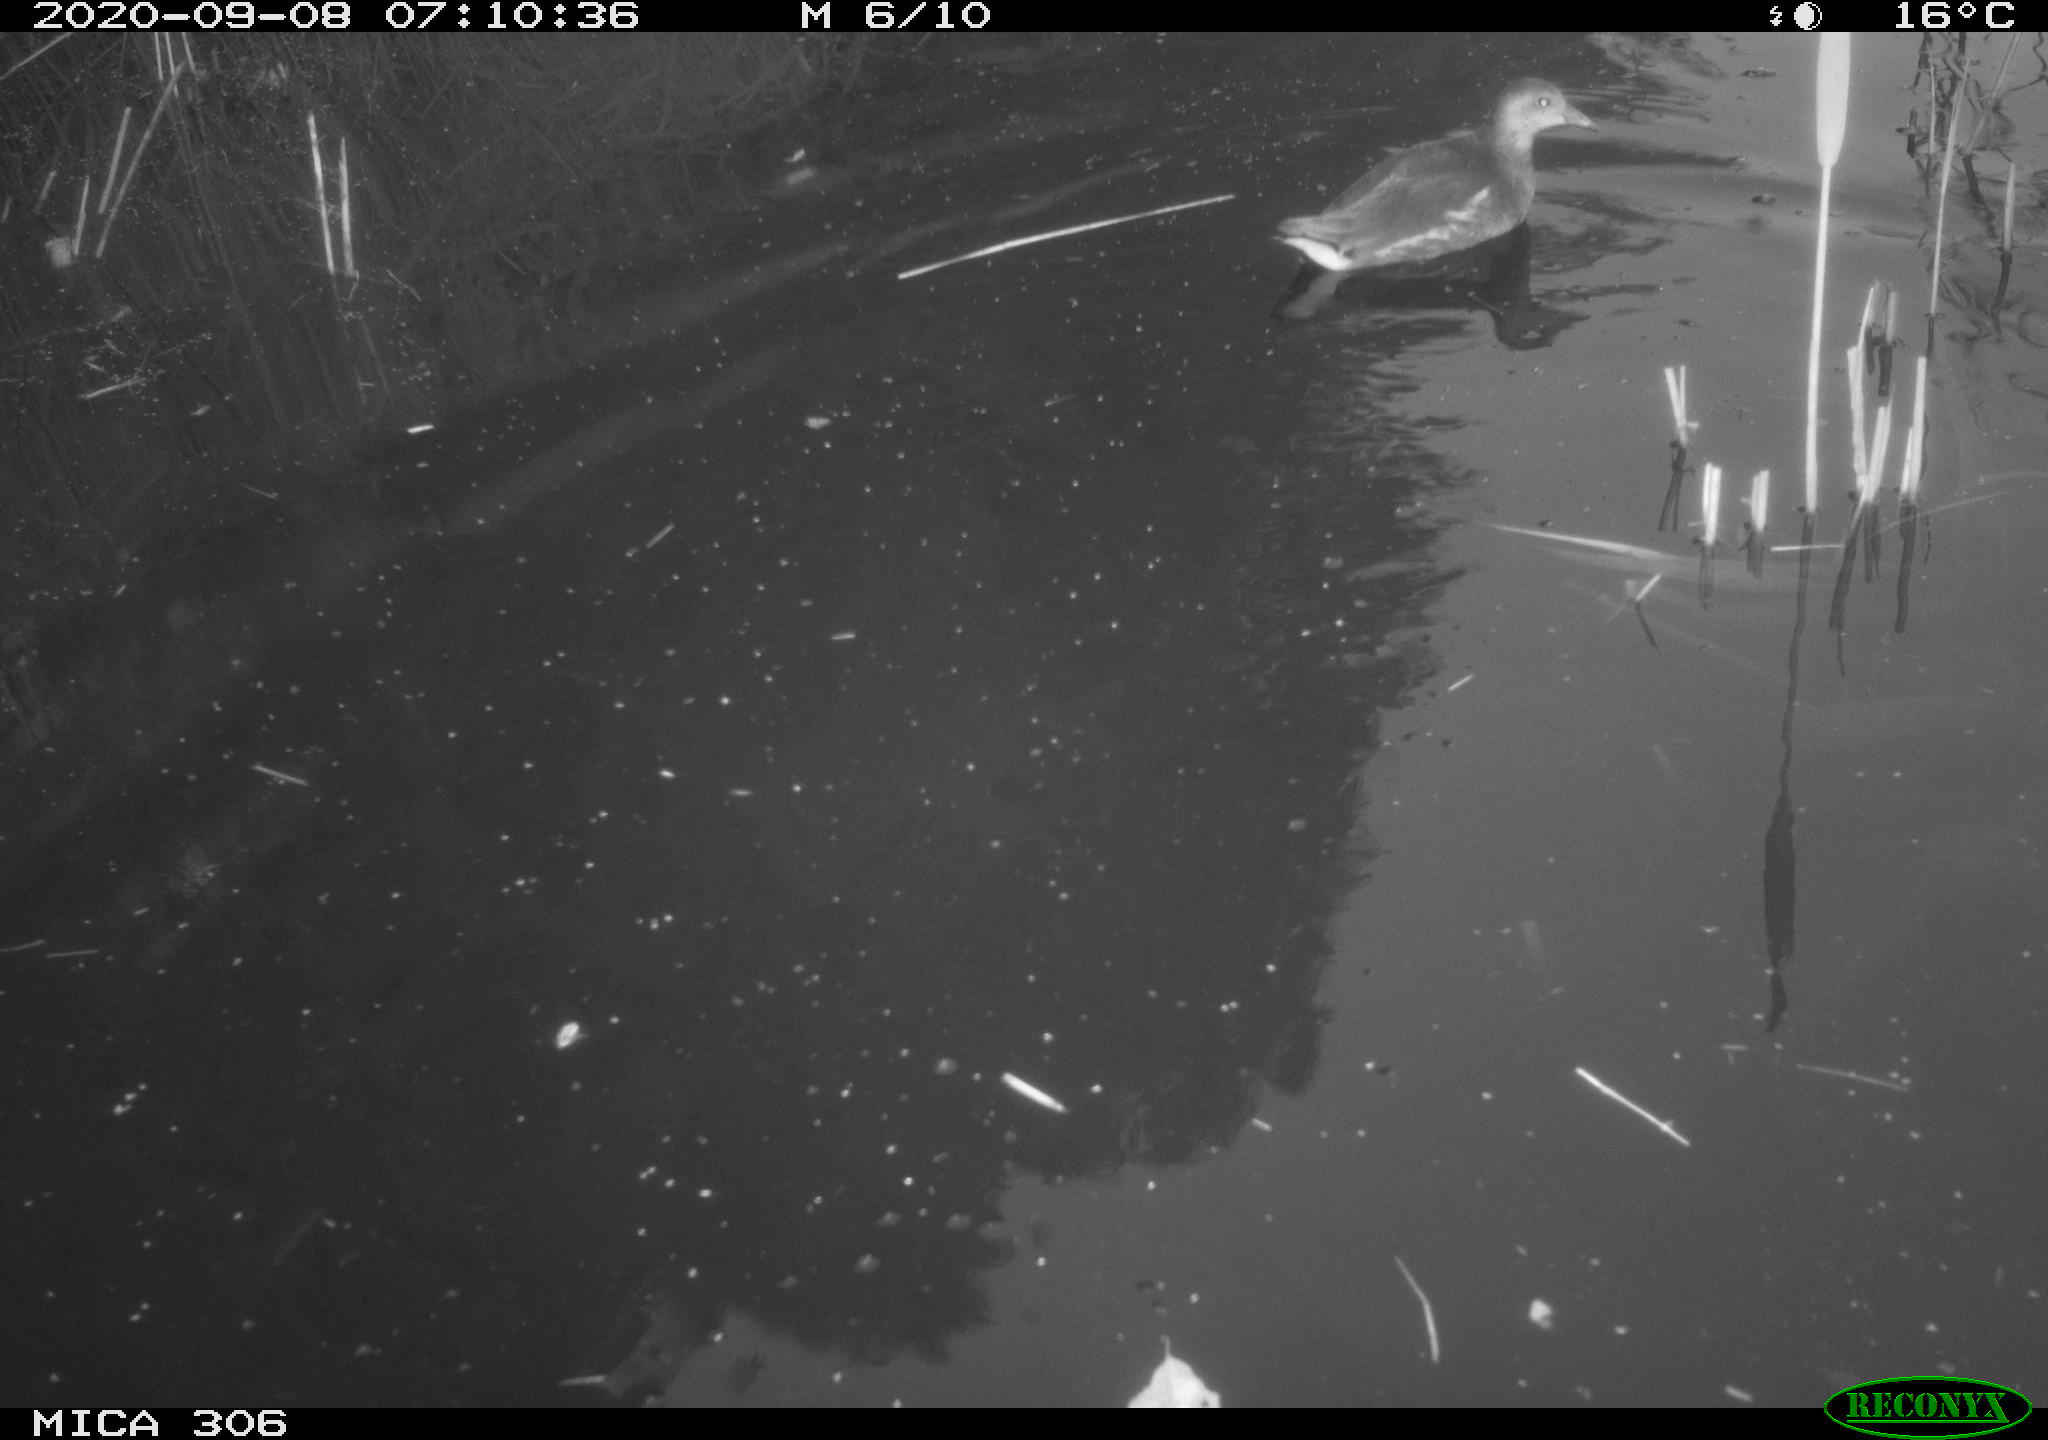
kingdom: Animalia
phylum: Chordata
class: Aves
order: Gruiformes
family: Rallidae
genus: Gallinula
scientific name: Gallinula chloropus
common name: Common moorhen
